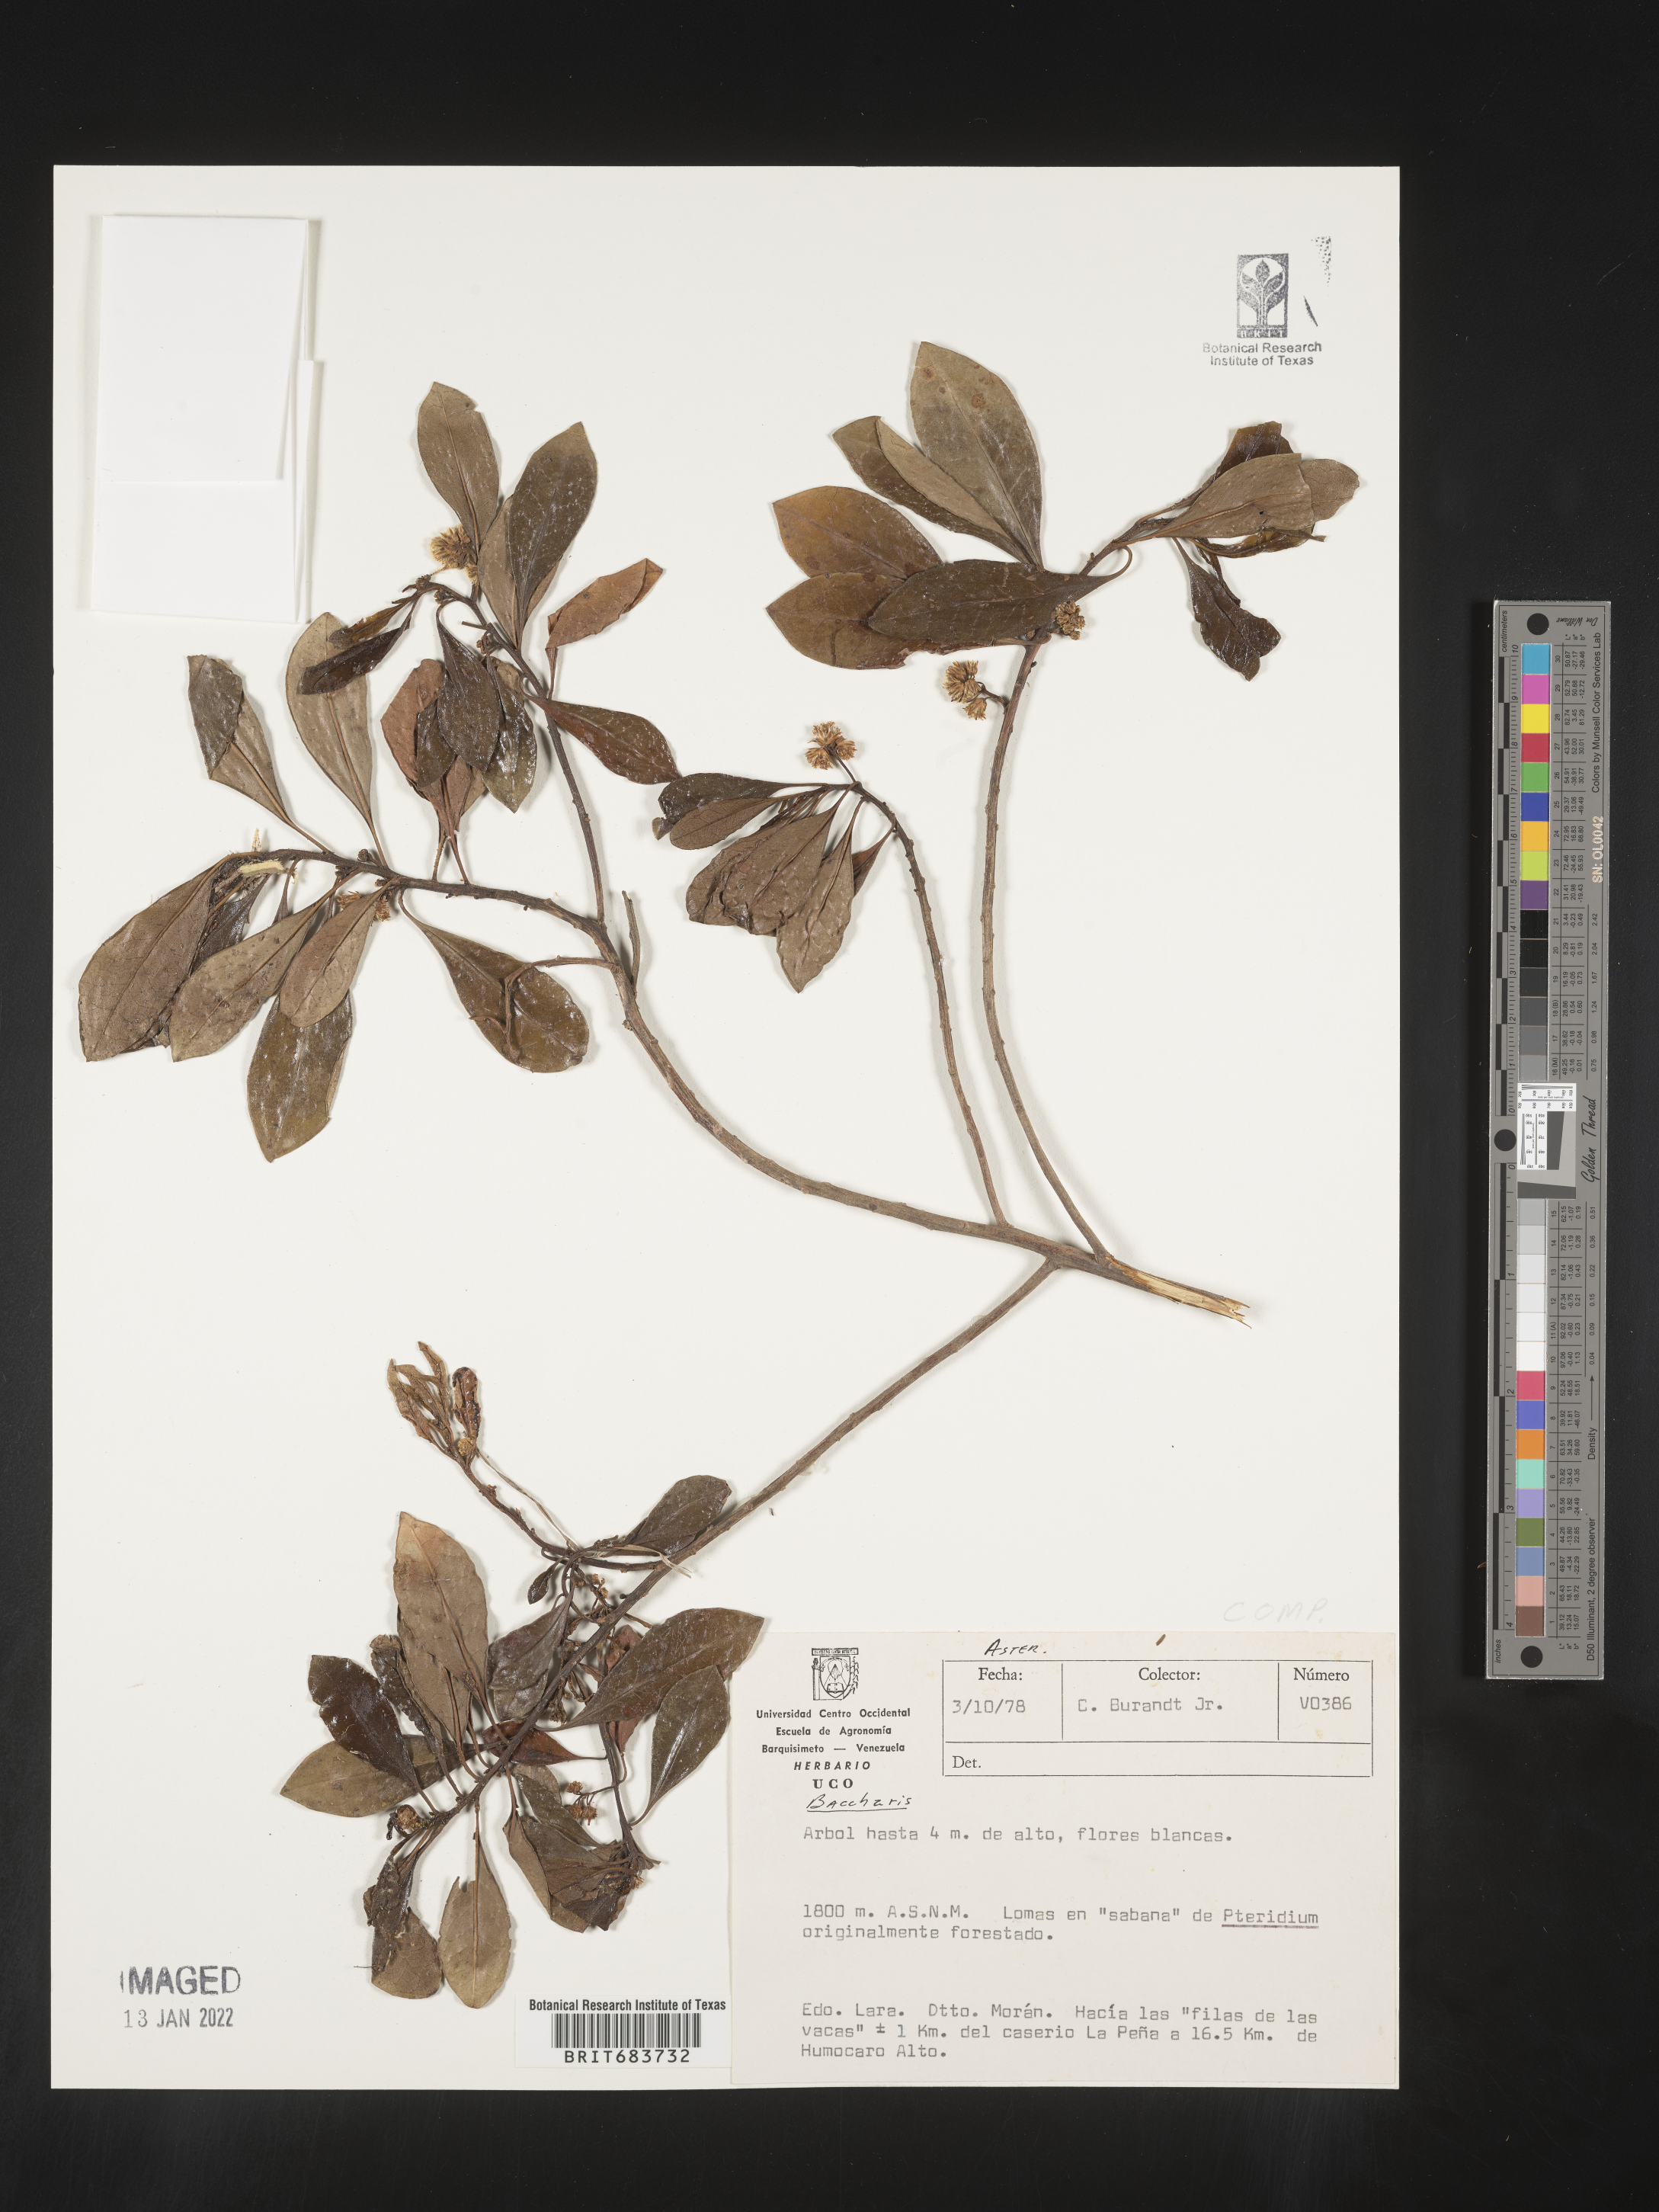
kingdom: Plantae
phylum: Tracheophyta
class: Magnoliopsida
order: Asterales
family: Asteraceae
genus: Baccharis
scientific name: Baccharis
